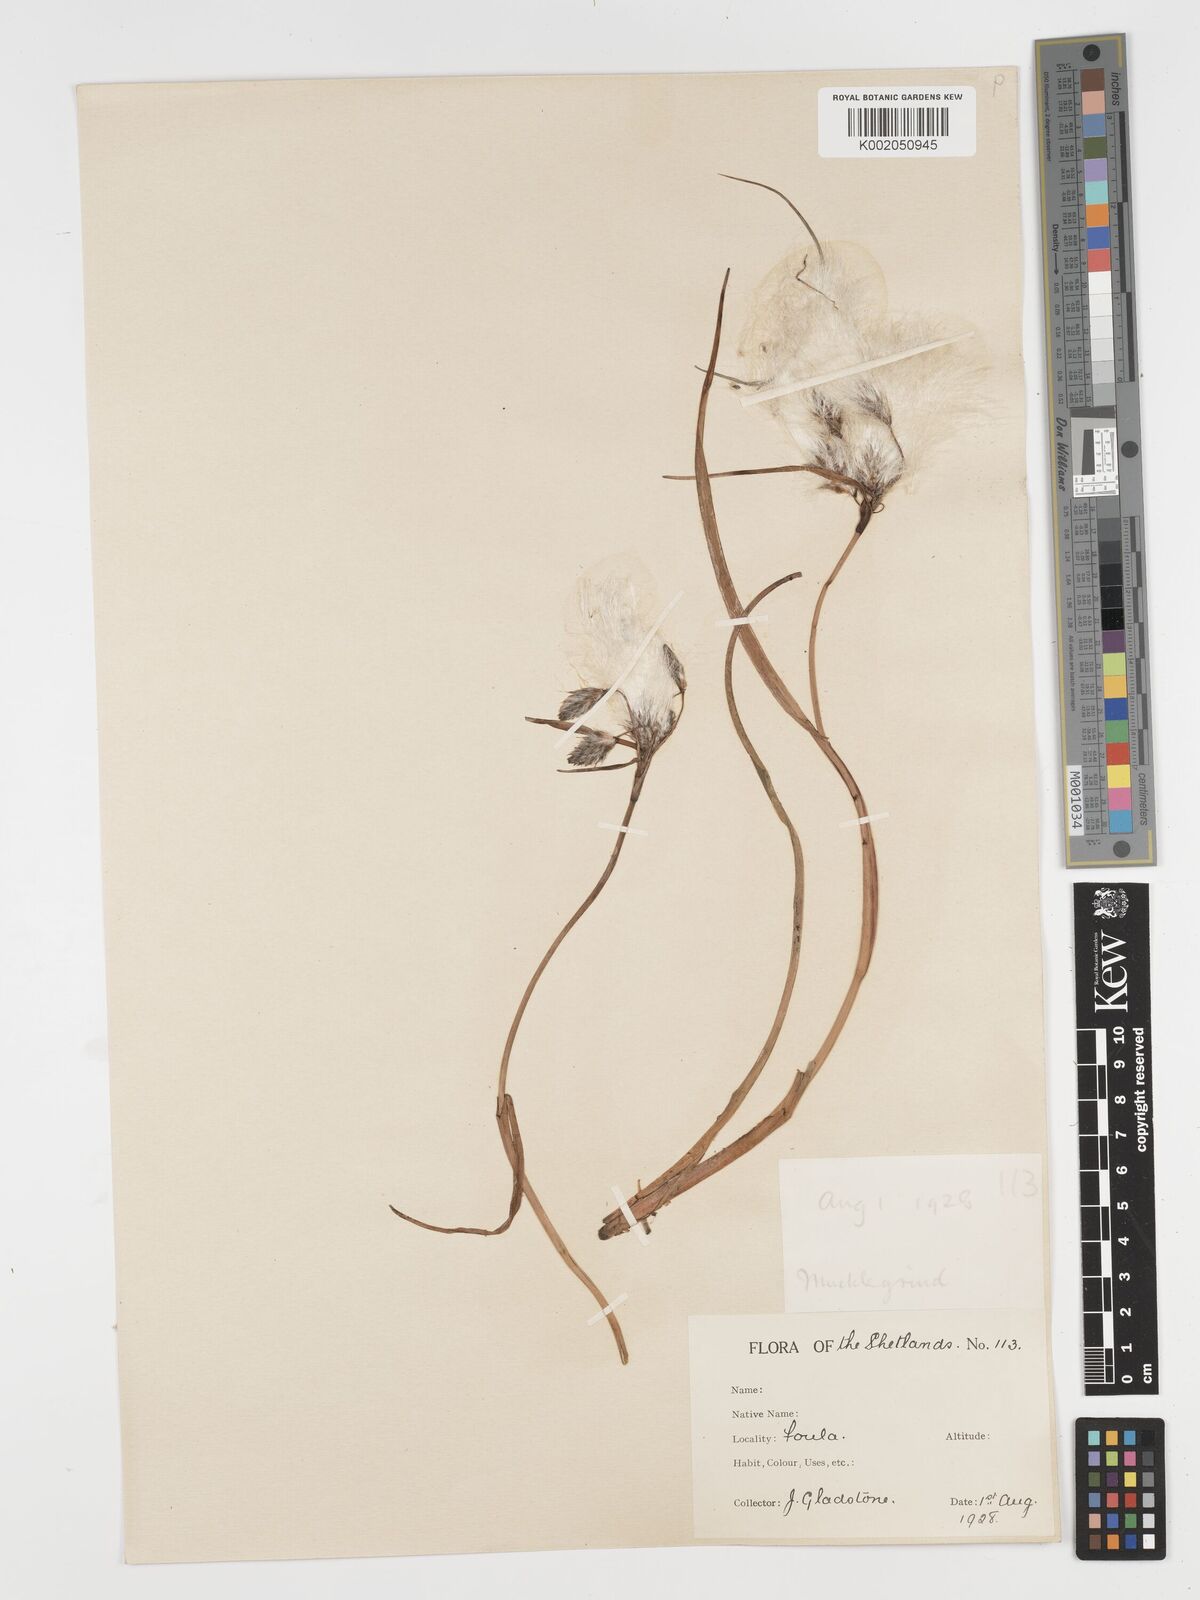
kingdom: Plantae
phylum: Tracheophyta
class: Liliopsida
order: Poales
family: Cyperaceae
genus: Eriophorum
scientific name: Eriophorum angustifolium
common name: Common cottongrass
